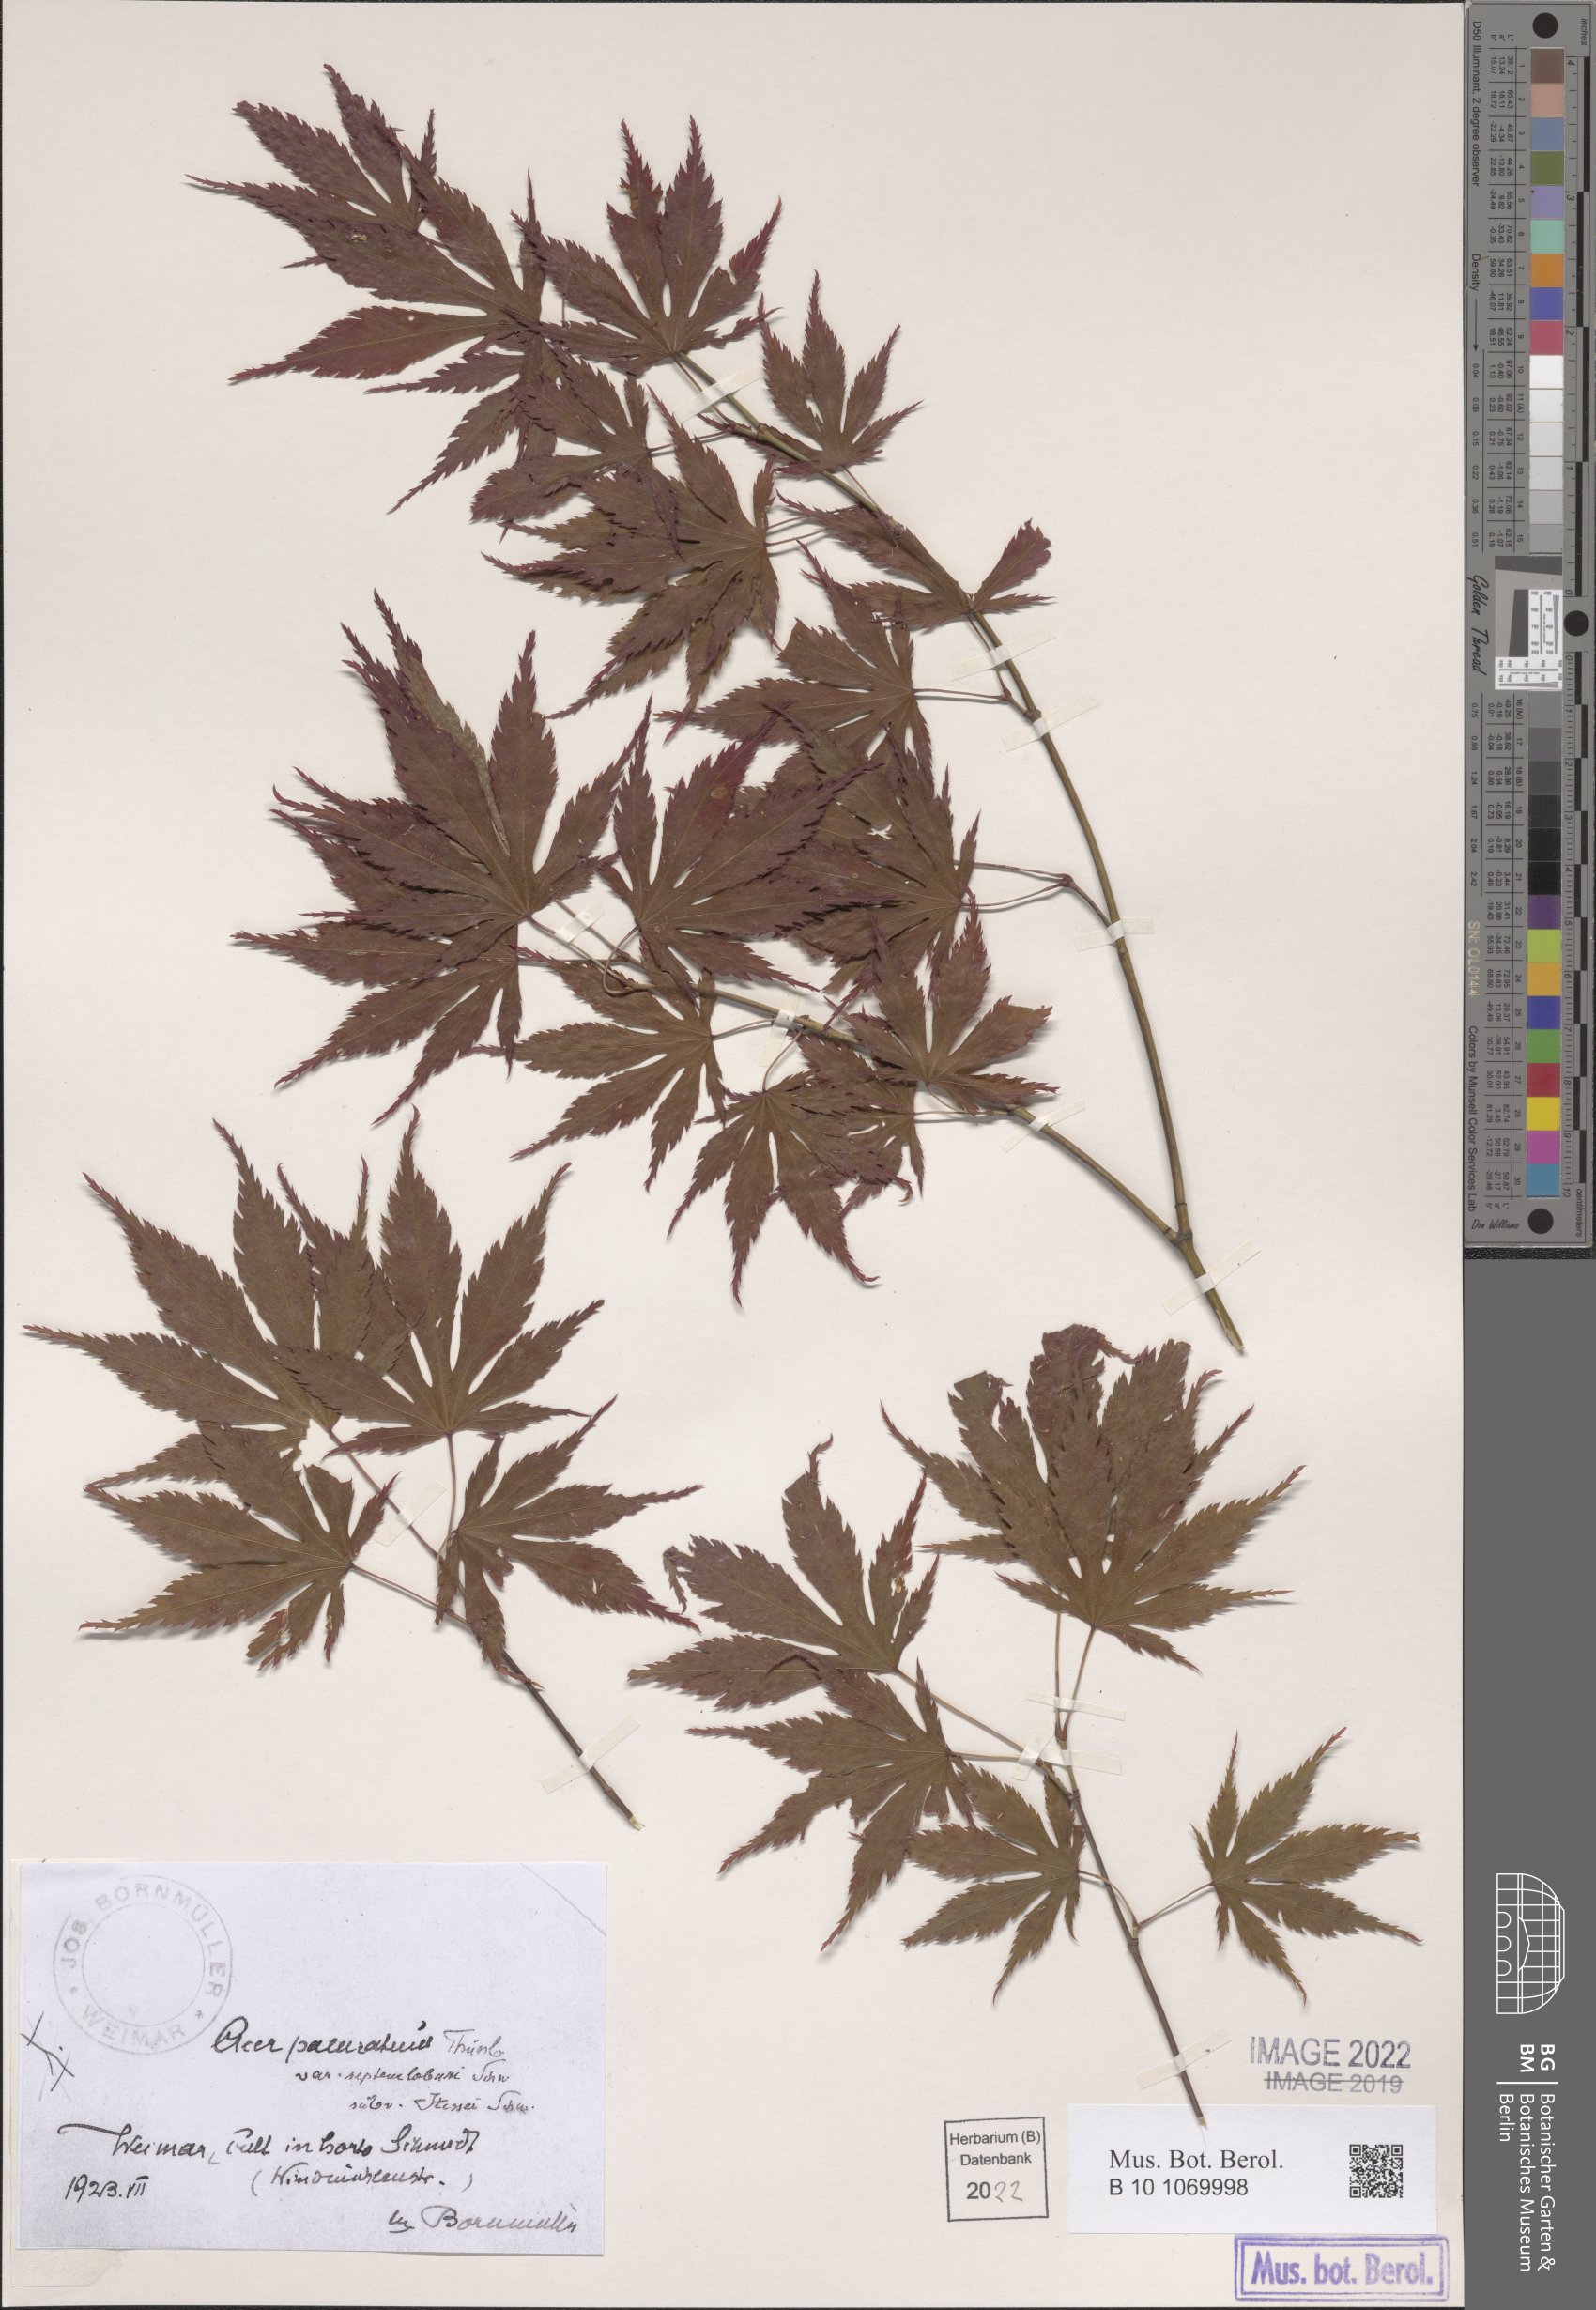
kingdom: Plantae
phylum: Tracheophyta
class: Magnoliopsida
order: Sapindales
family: Sapindaceae
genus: Acer
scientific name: Acer palmatum
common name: Japanese maple
